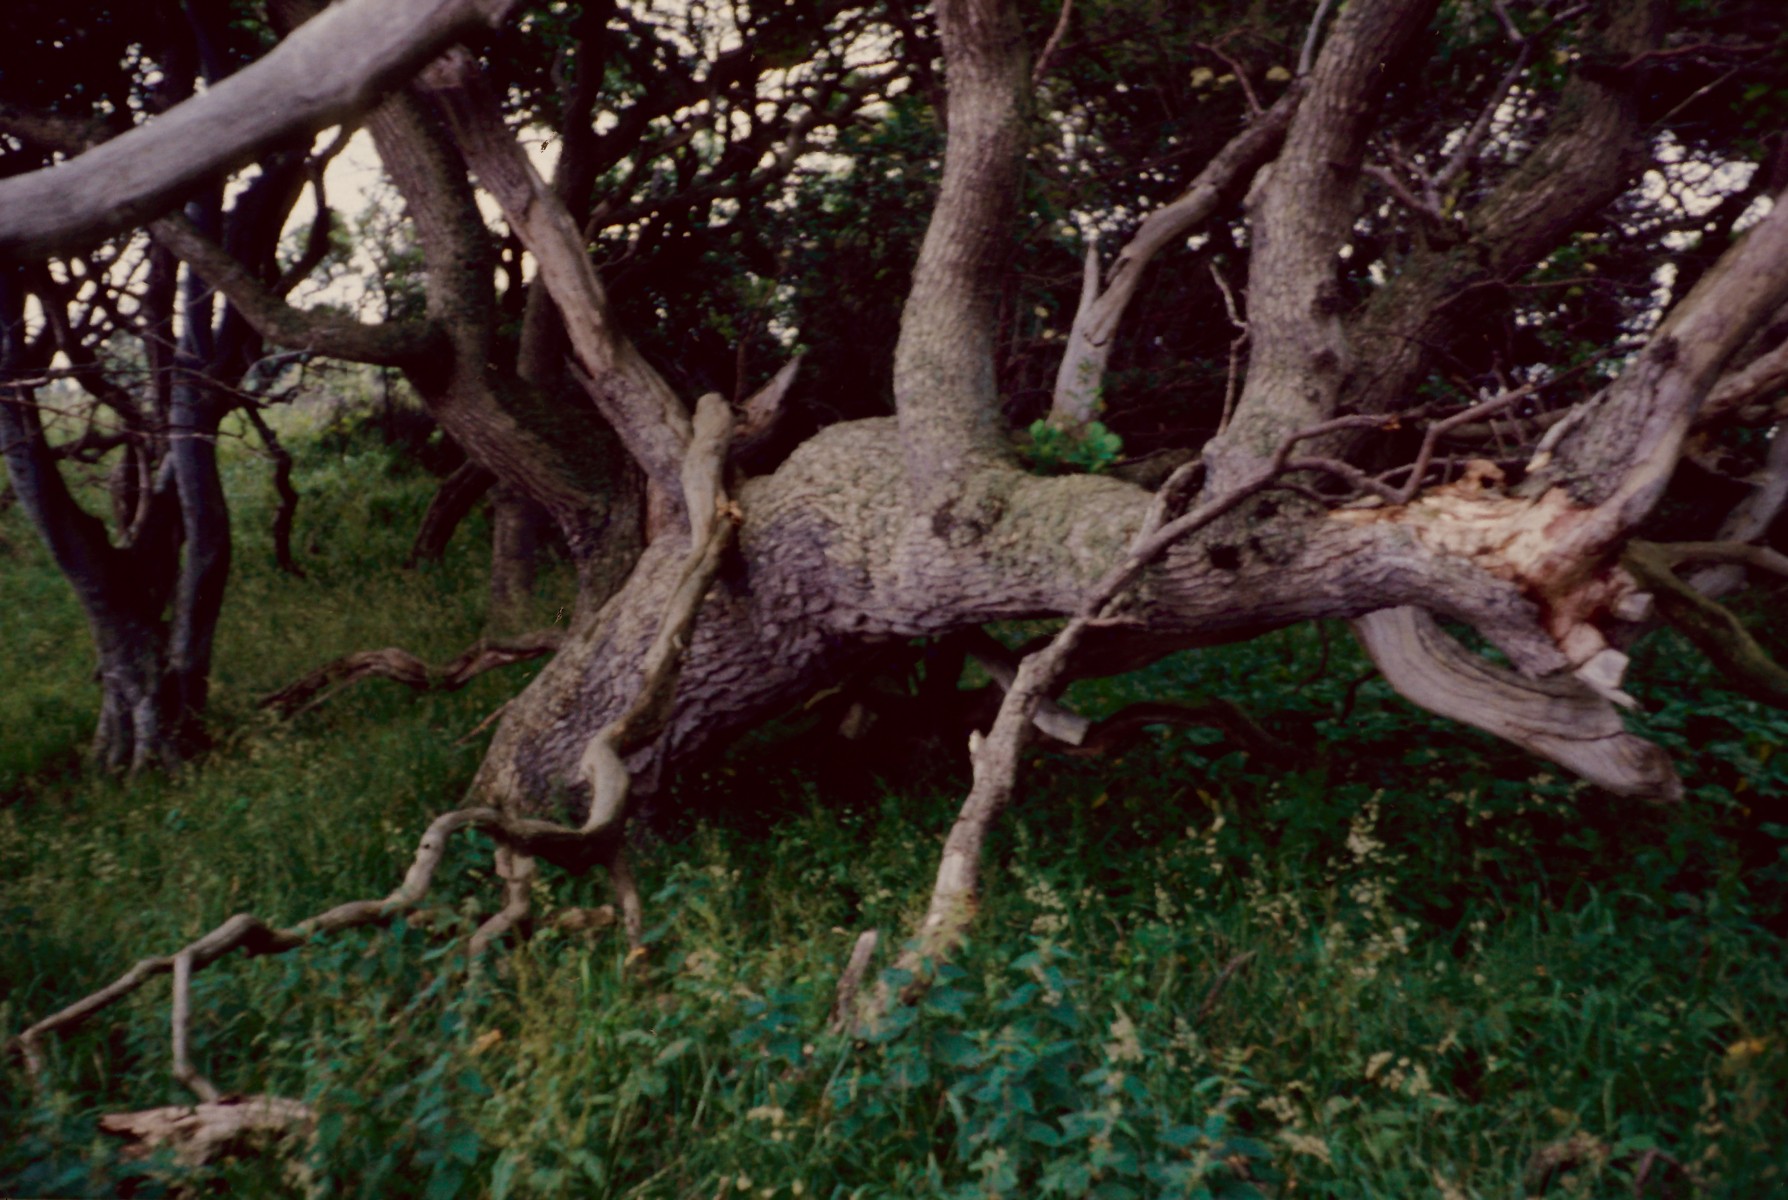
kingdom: Fungi
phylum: Ascomycota
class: Lecanoromycetes
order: Peltigerales
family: Lobariaceae
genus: Lobaria
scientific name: Lobaria pulmonaria
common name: almindelig lungelav
